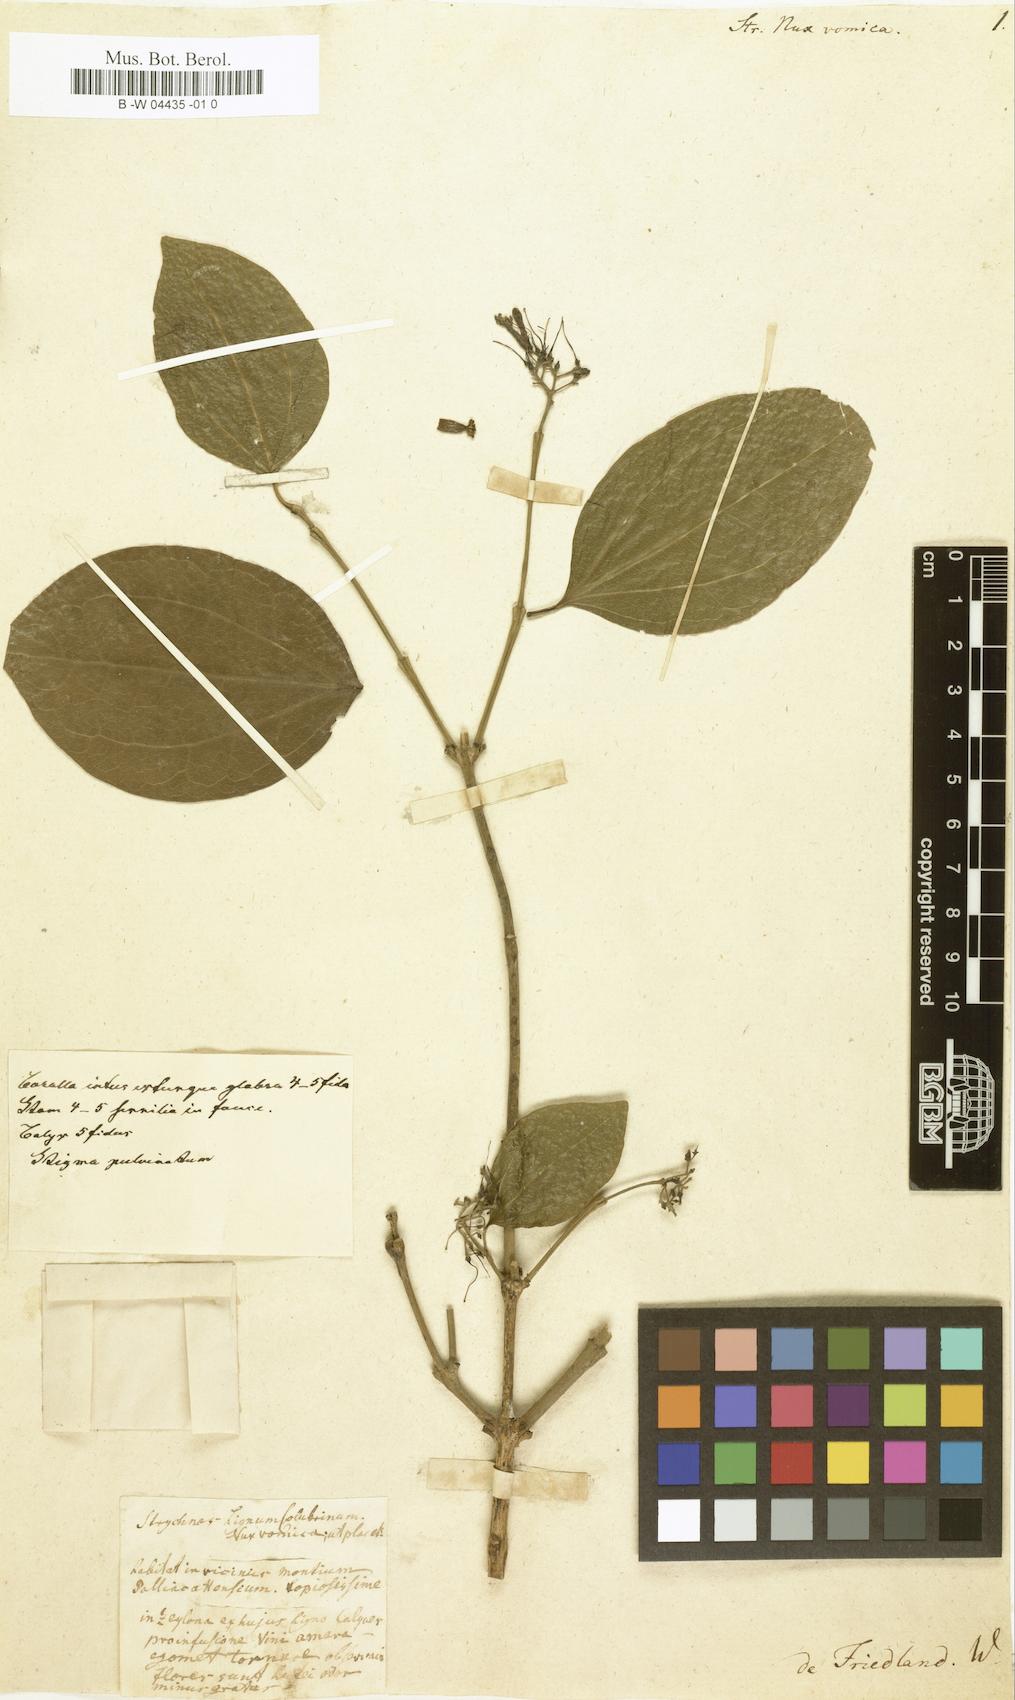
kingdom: Plantae
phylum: Tracheophyta
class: Magnoliopsida
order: Gentianales
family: Loganiaceae
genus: Strychnos
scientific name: Strychnos nux-vomica
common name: Strychninetree
